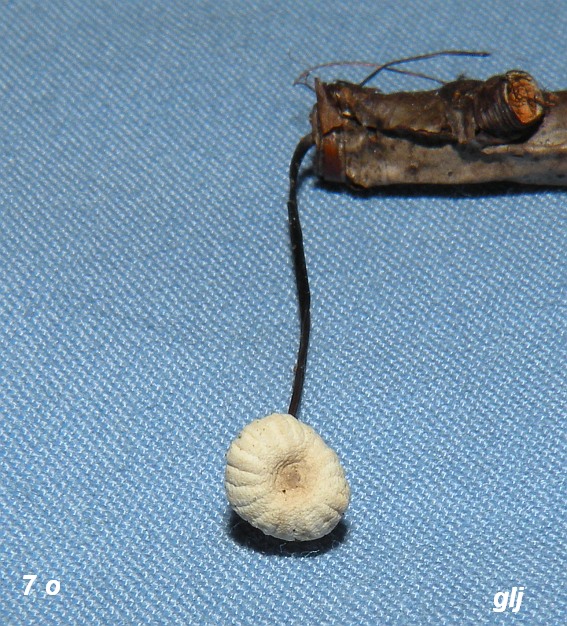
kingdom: Fungi
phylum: Basidiomycota
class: Agaricomycetes
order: Agaricales
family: Marasmiaceae
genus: Marasmius
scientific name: Marasmius rotula
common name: hjul-bruskhat
